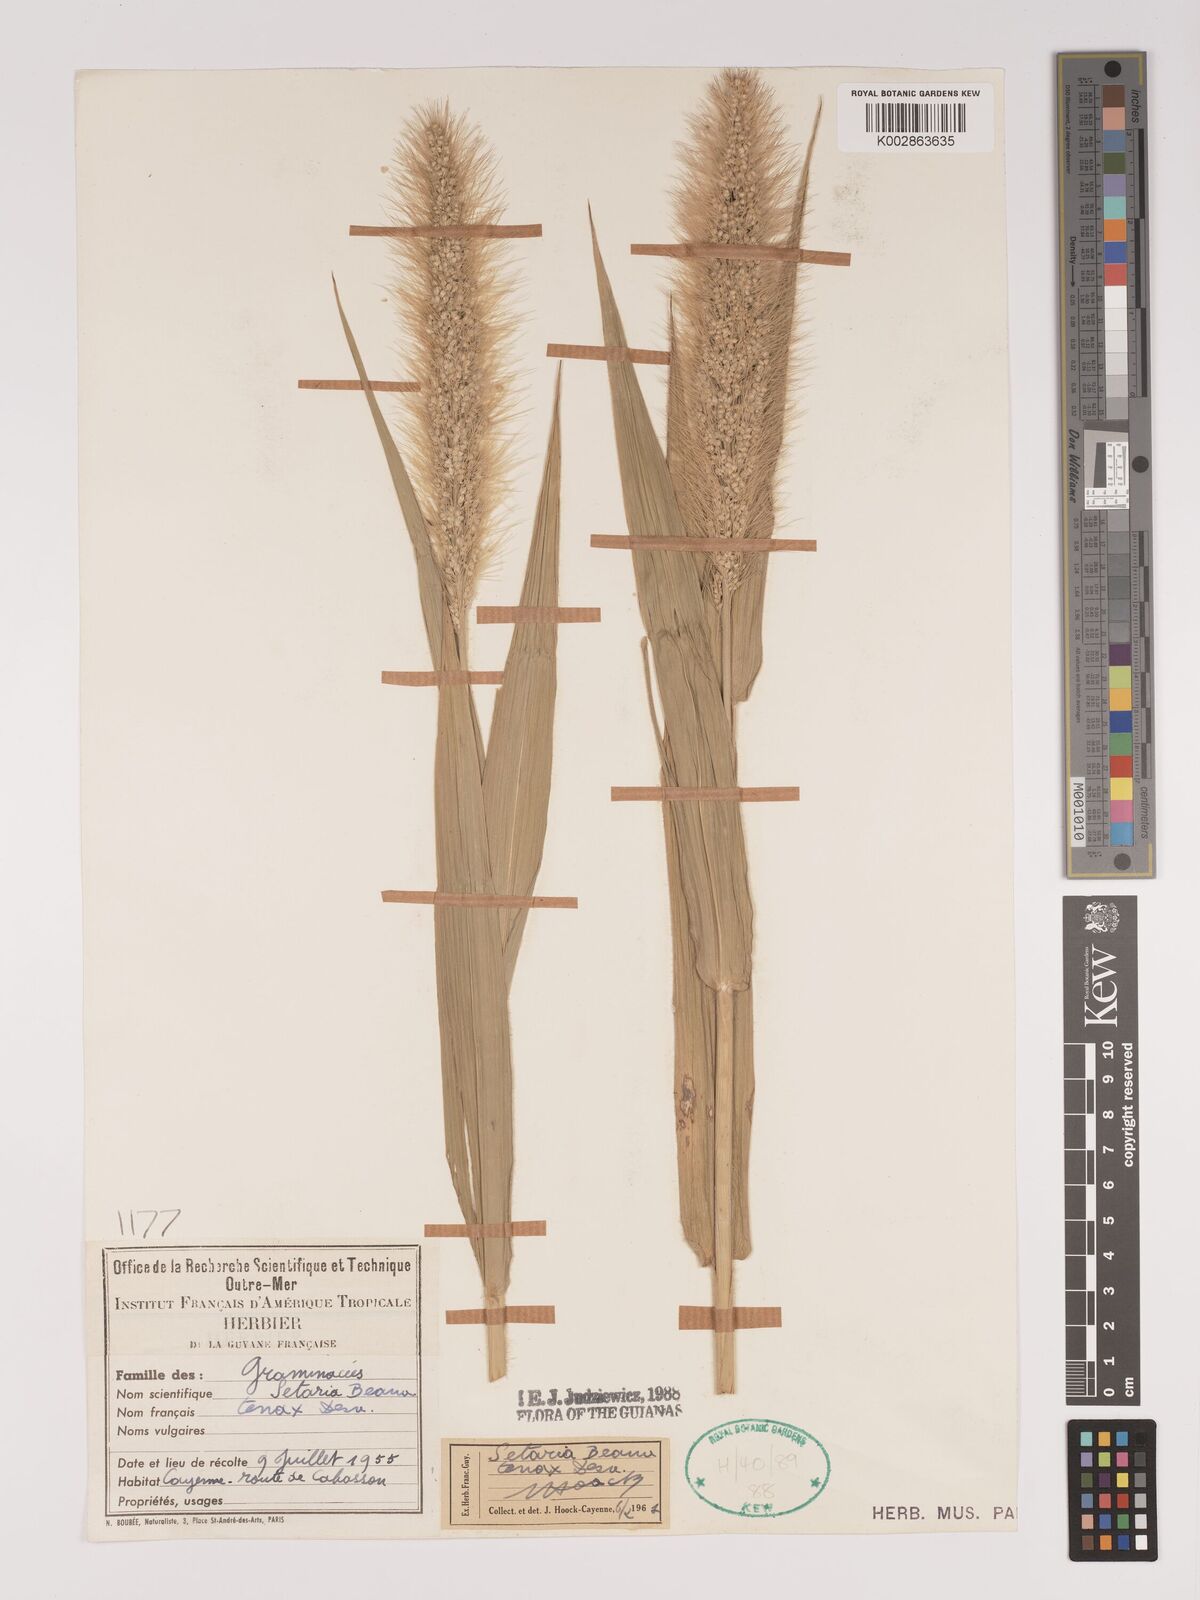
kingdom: Plantae
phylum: Tracheophyta
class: Liliopsida
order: Poales
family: Poaceae
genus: Setaria
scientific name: Setaria tenax
